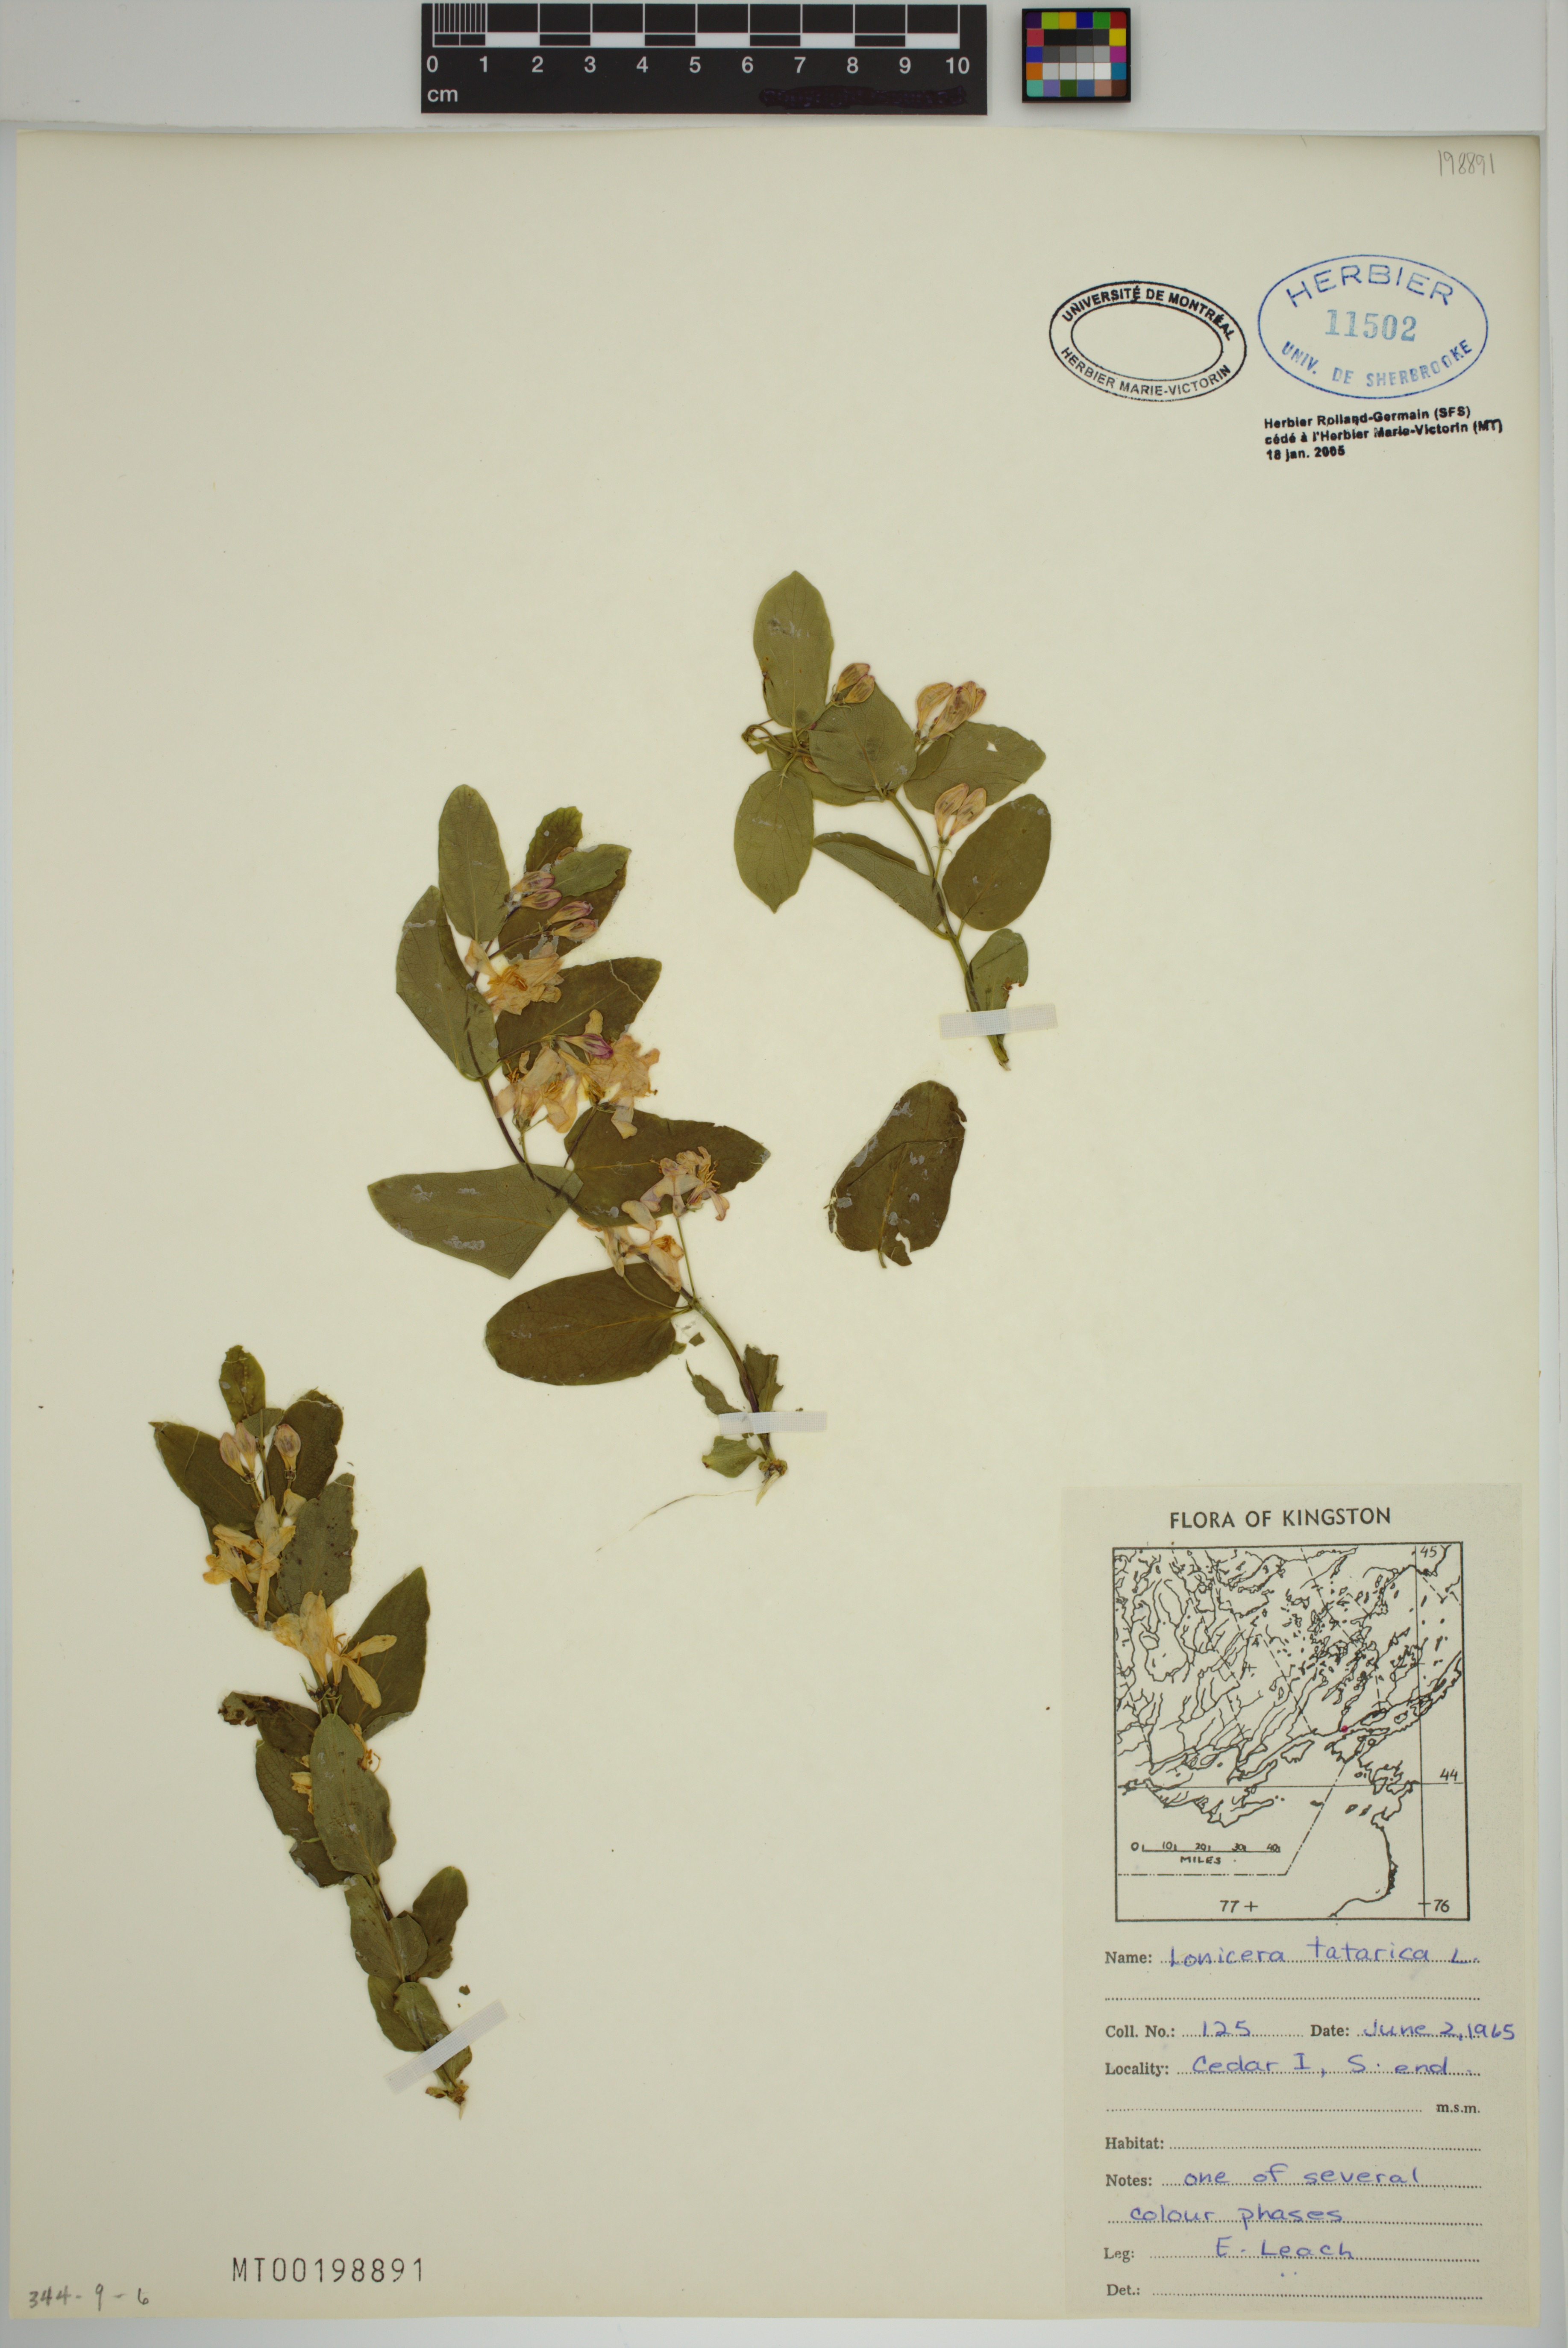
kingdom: Plantae
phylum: Tracheophyta
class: Magnoliopsida
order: Dipsacales
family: Caprifoliaceae
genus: Lonicera
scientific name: Lonicera tatarica
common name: Tatarian honeysuckle
